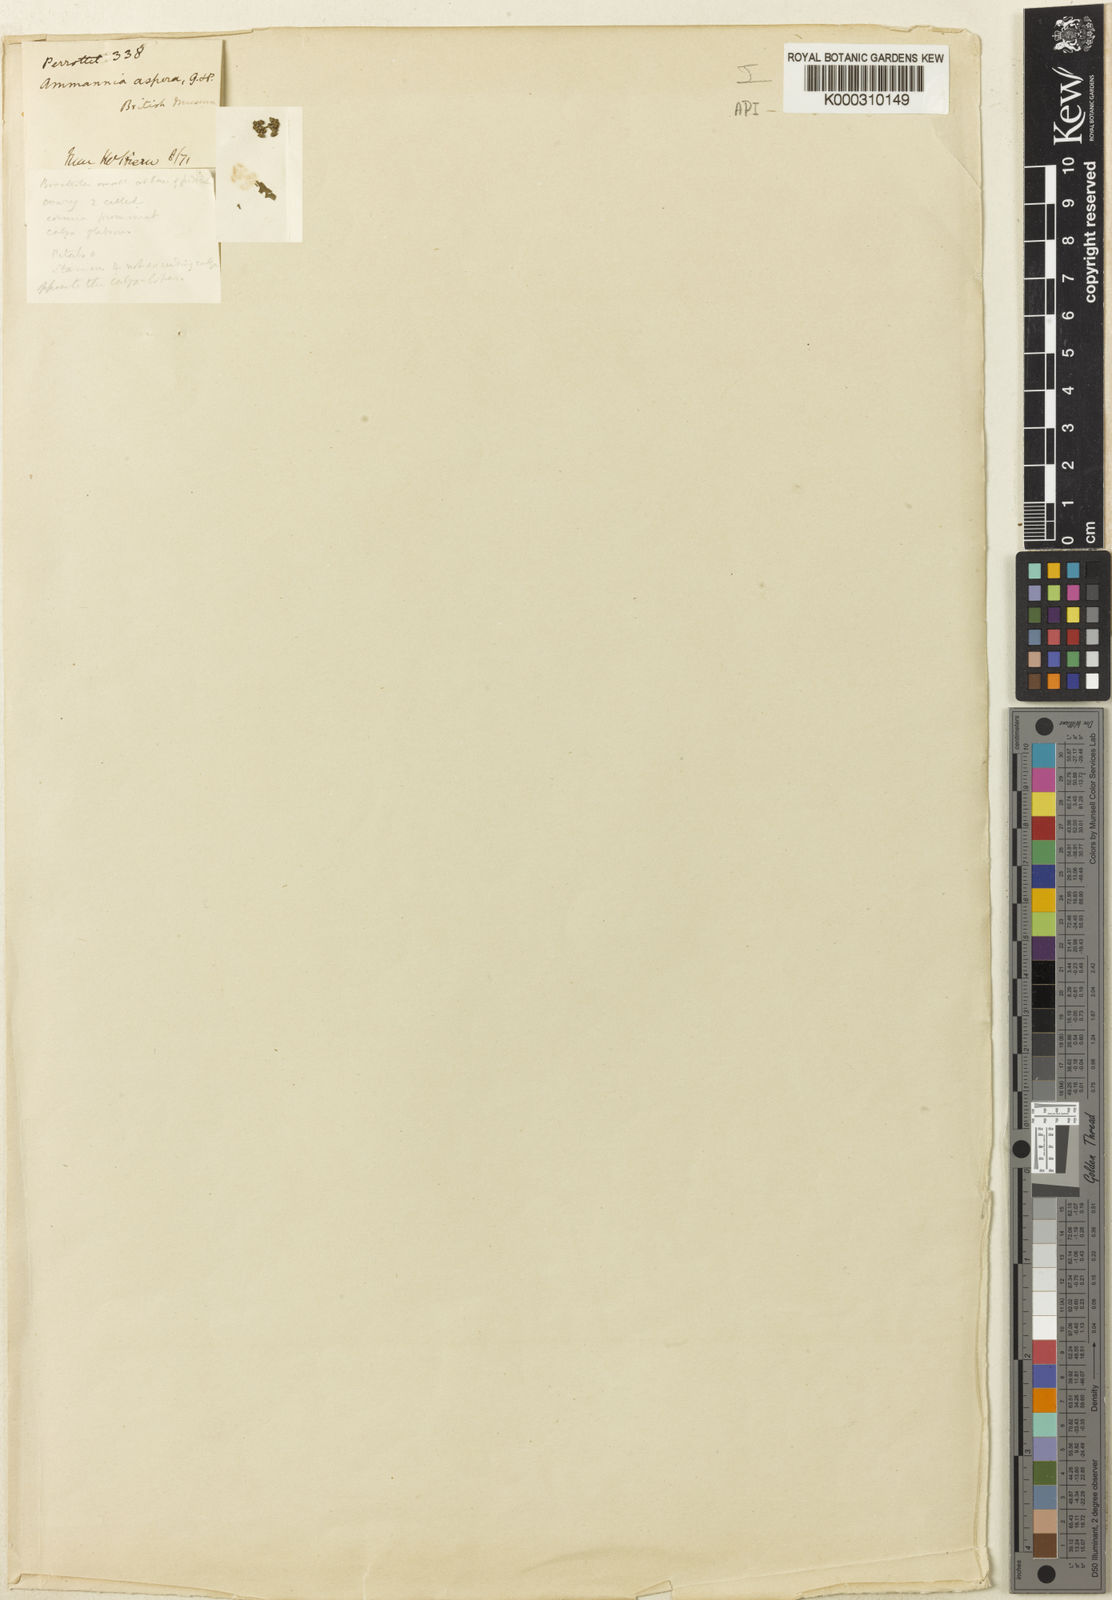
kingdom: Plantae
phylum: Tracheophyta
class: Magnoliopsida
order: Myrtales
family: Lythraceae
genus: Ammannia
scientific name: Ammannia aspera
